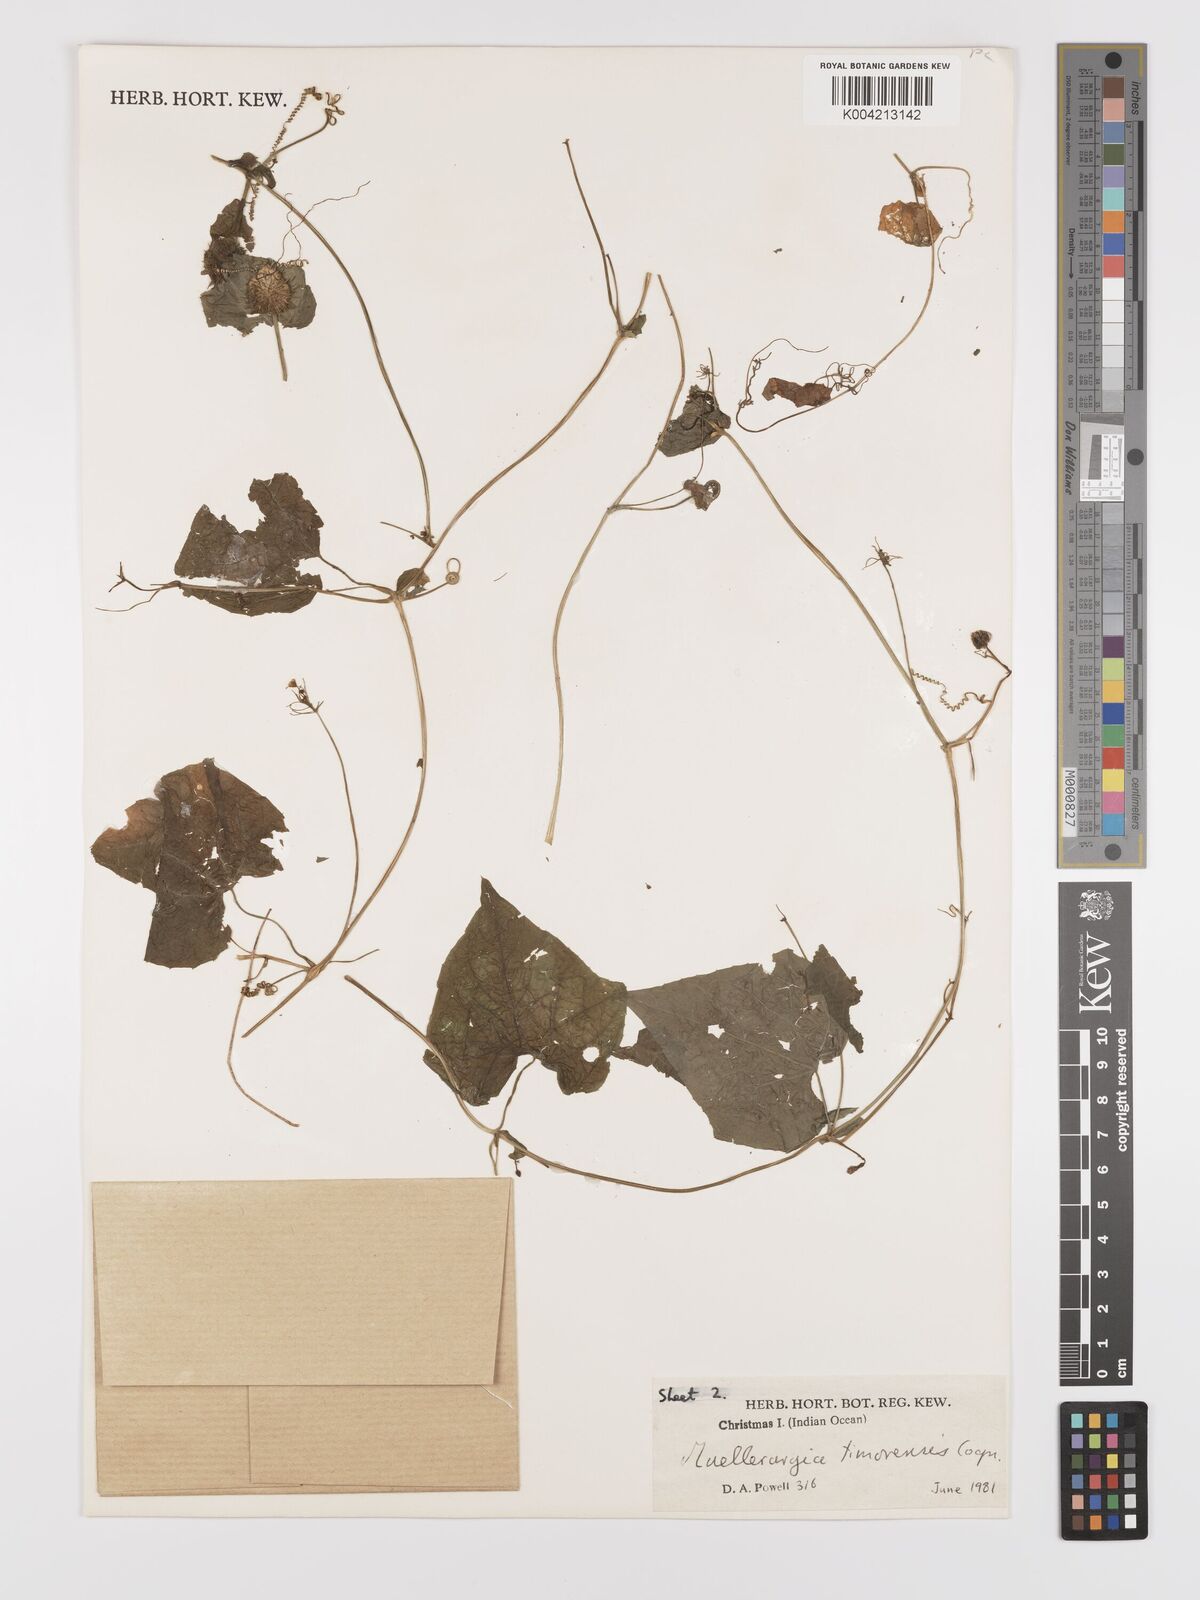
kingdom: Plantae
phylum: Tracheophyta
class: Magnoliopsida
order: Cucurbitales
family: Cucurbitaceae
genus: Muellerargia
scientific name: Muellerargia
